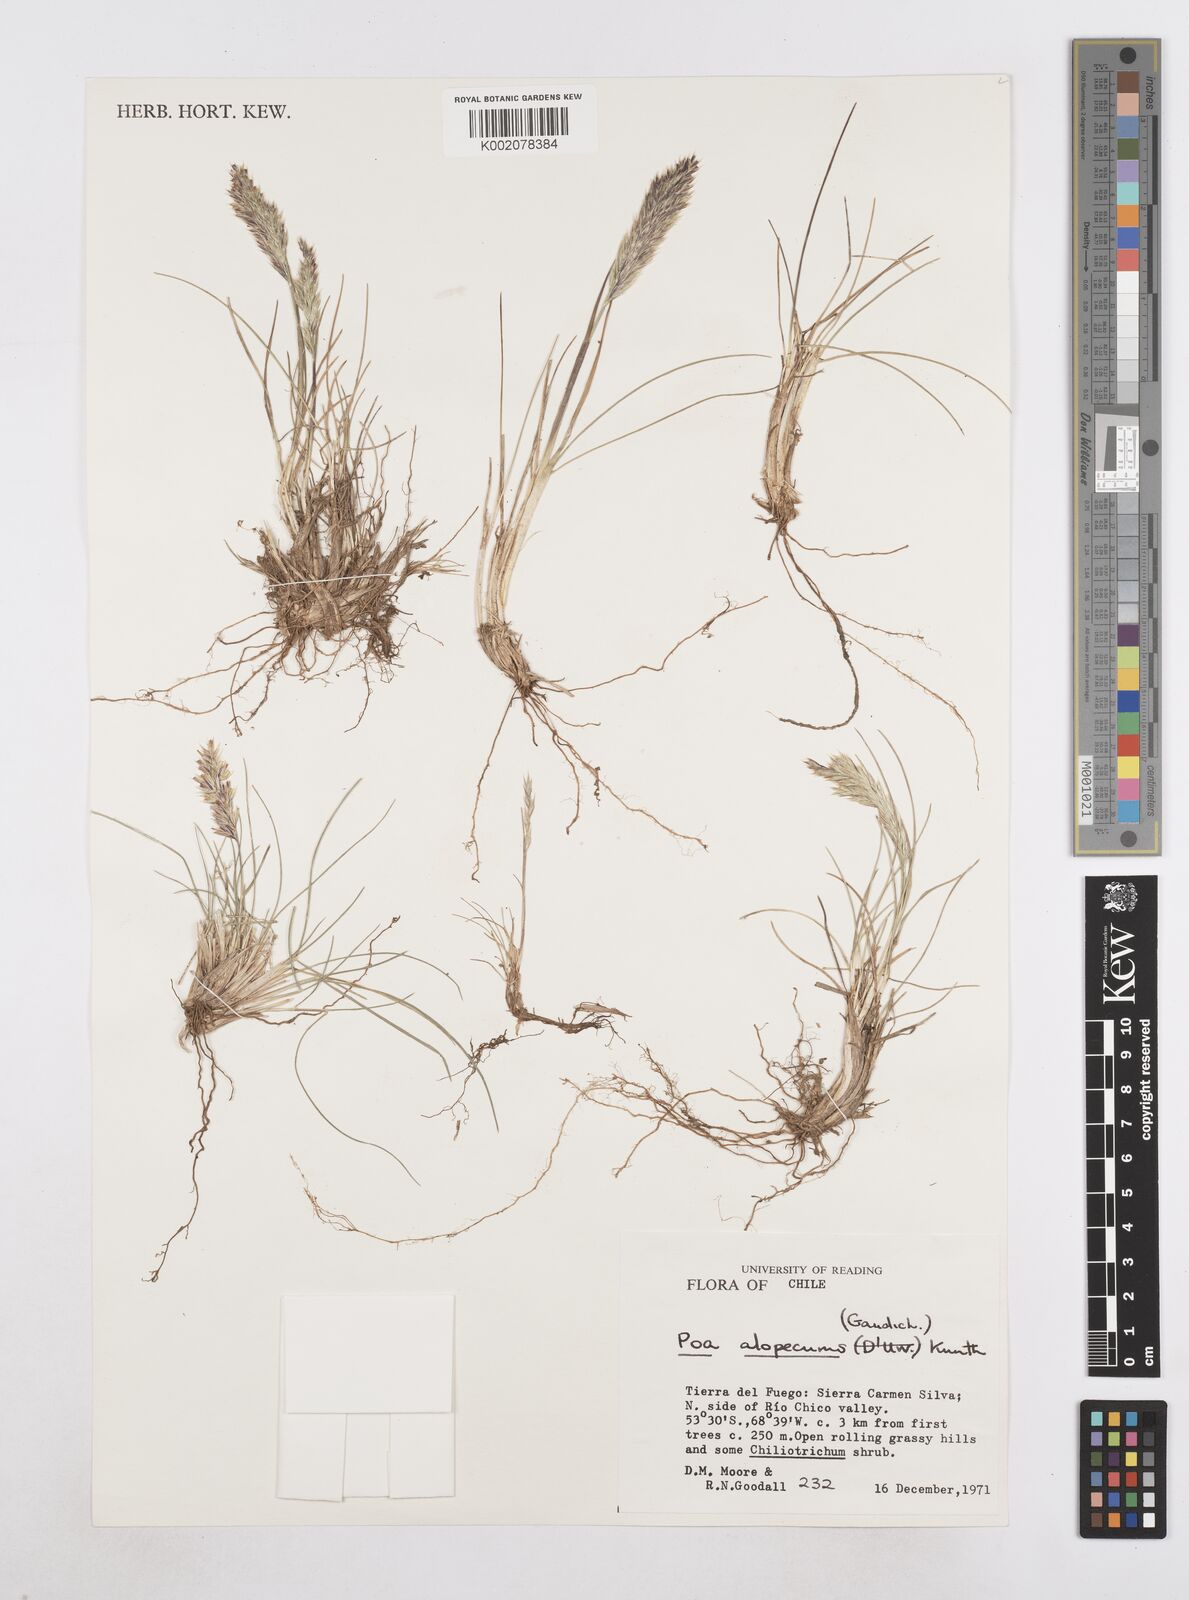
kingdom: Plantae
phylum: Tracheophyta
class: Liliopsida
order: Poales
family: Poaceae
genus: Poa
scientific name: Poa alopecurus
